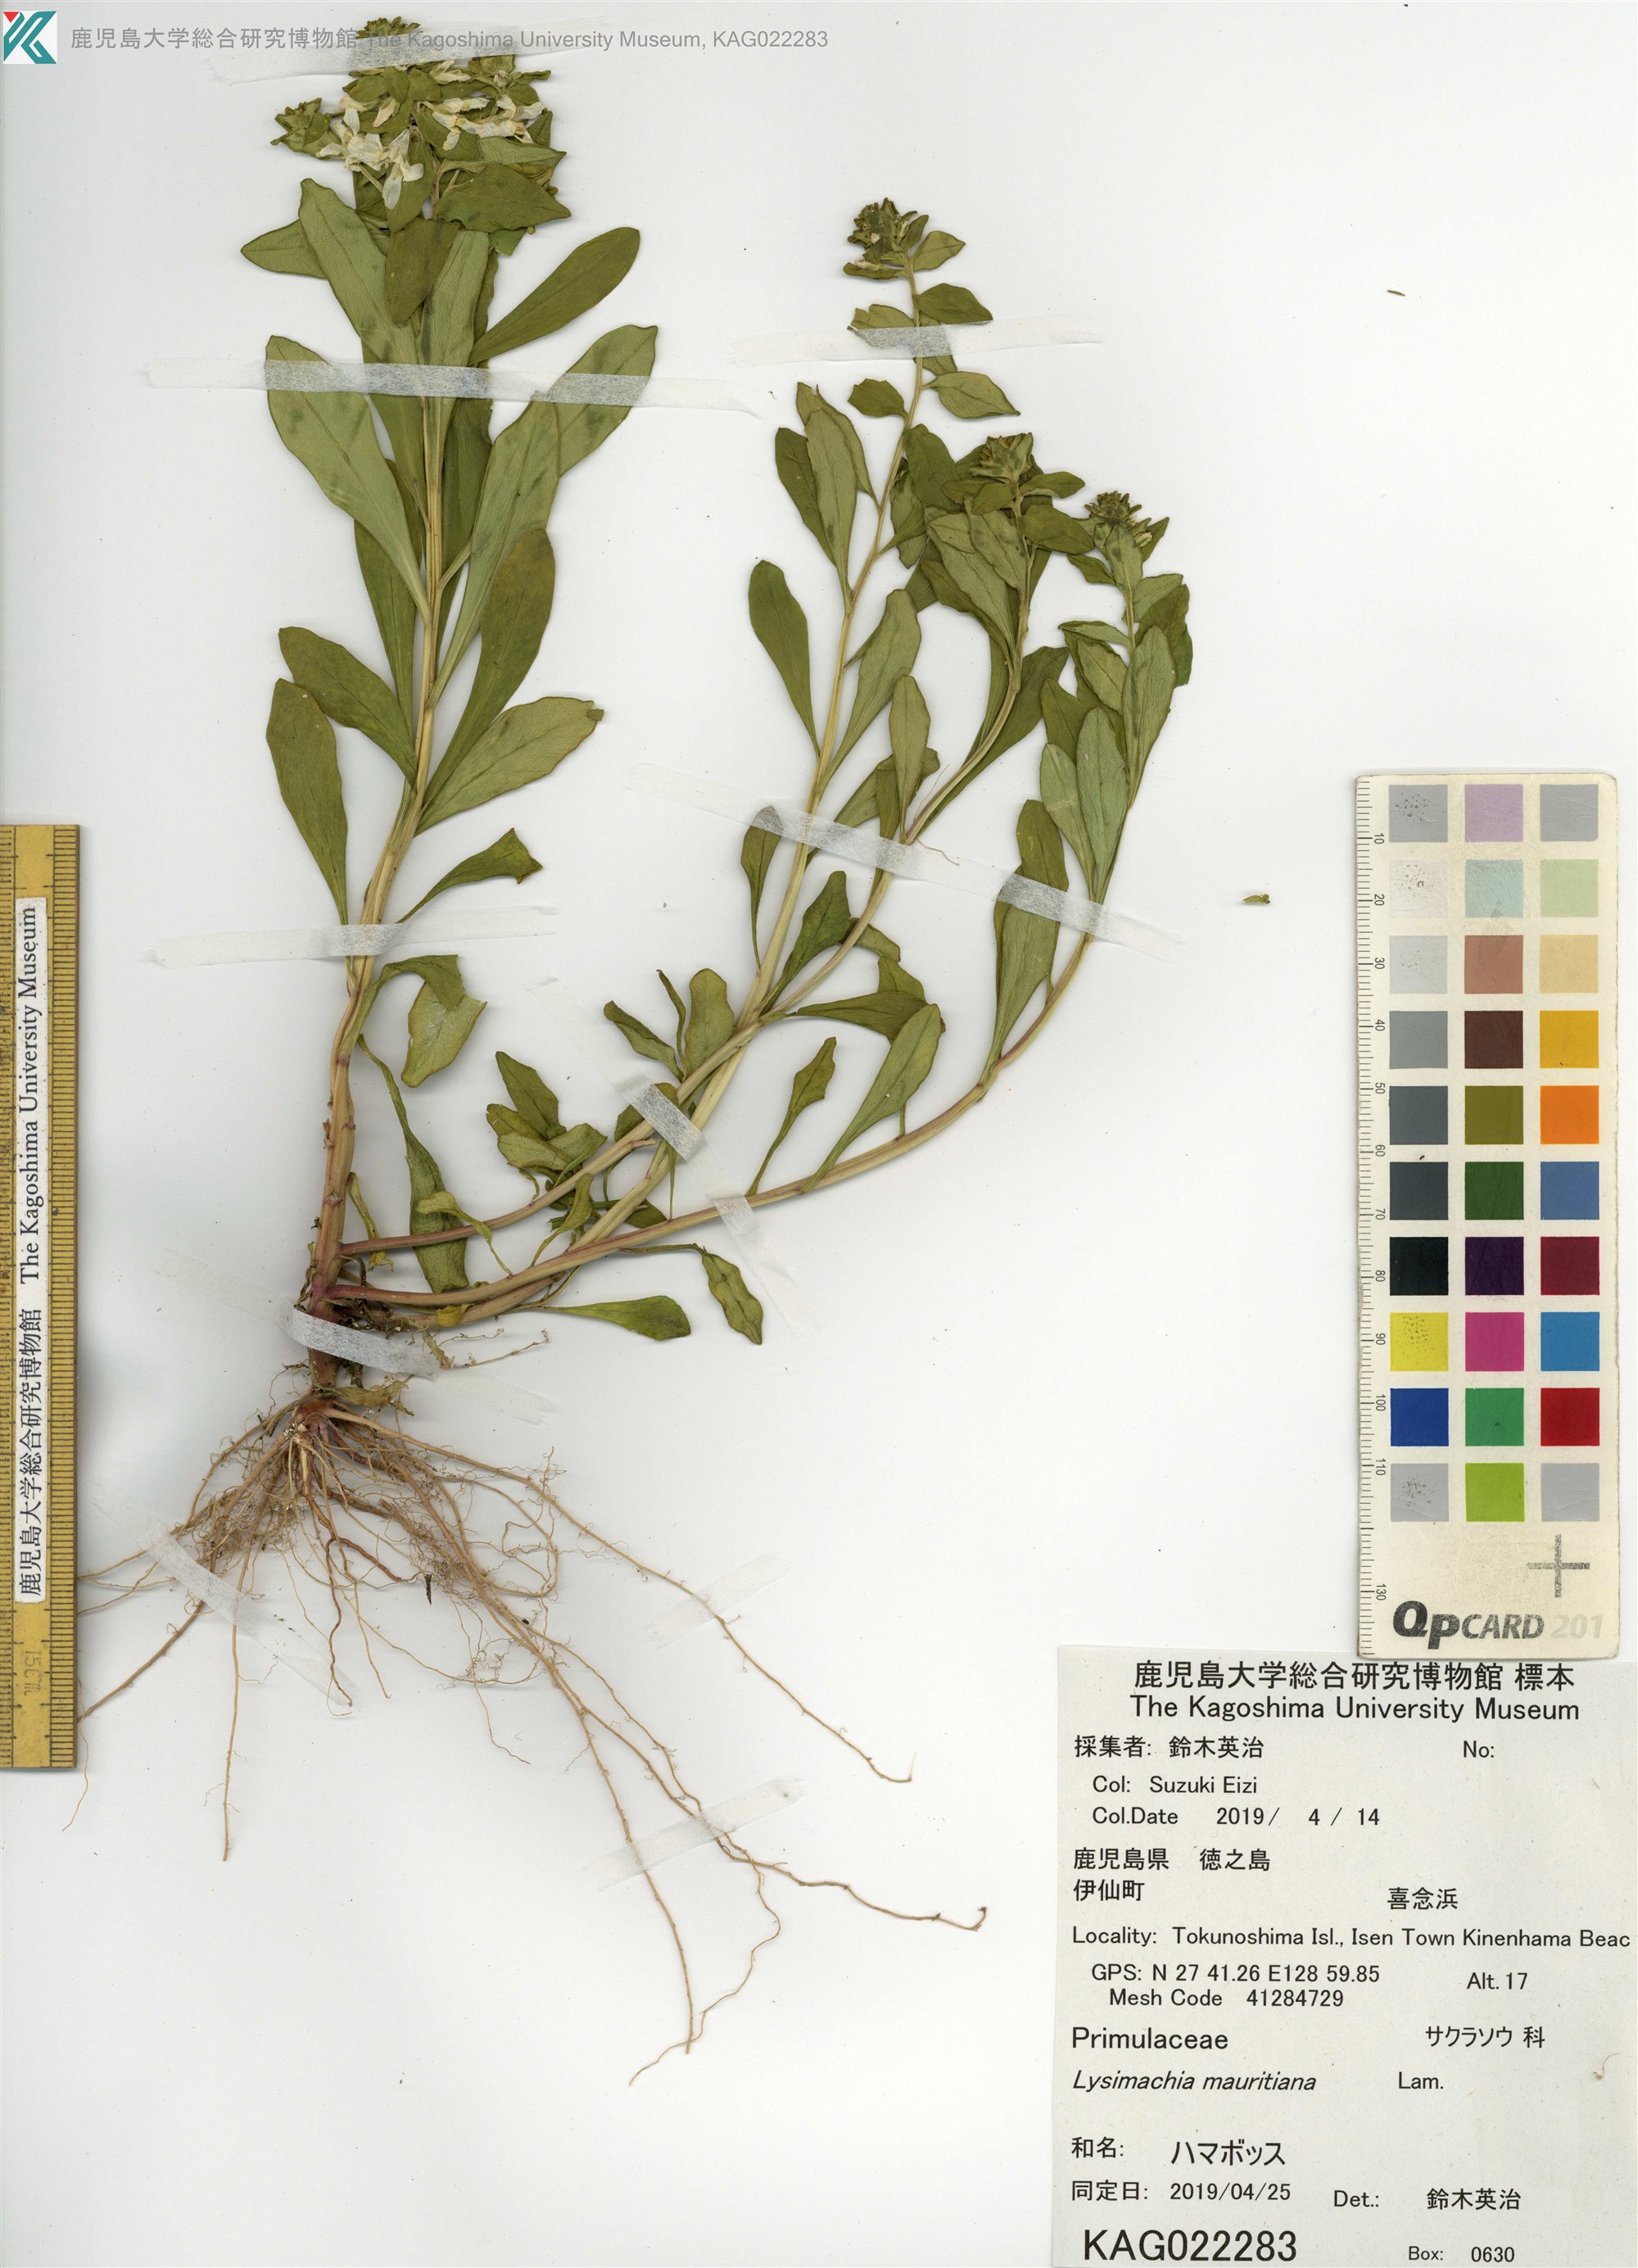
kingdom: Plantae
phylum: Tracheophyta
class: Magnoliopsida
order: Ericales
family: Primulaceae
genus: Lysimachia
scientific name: Lysimachia mauritiana
